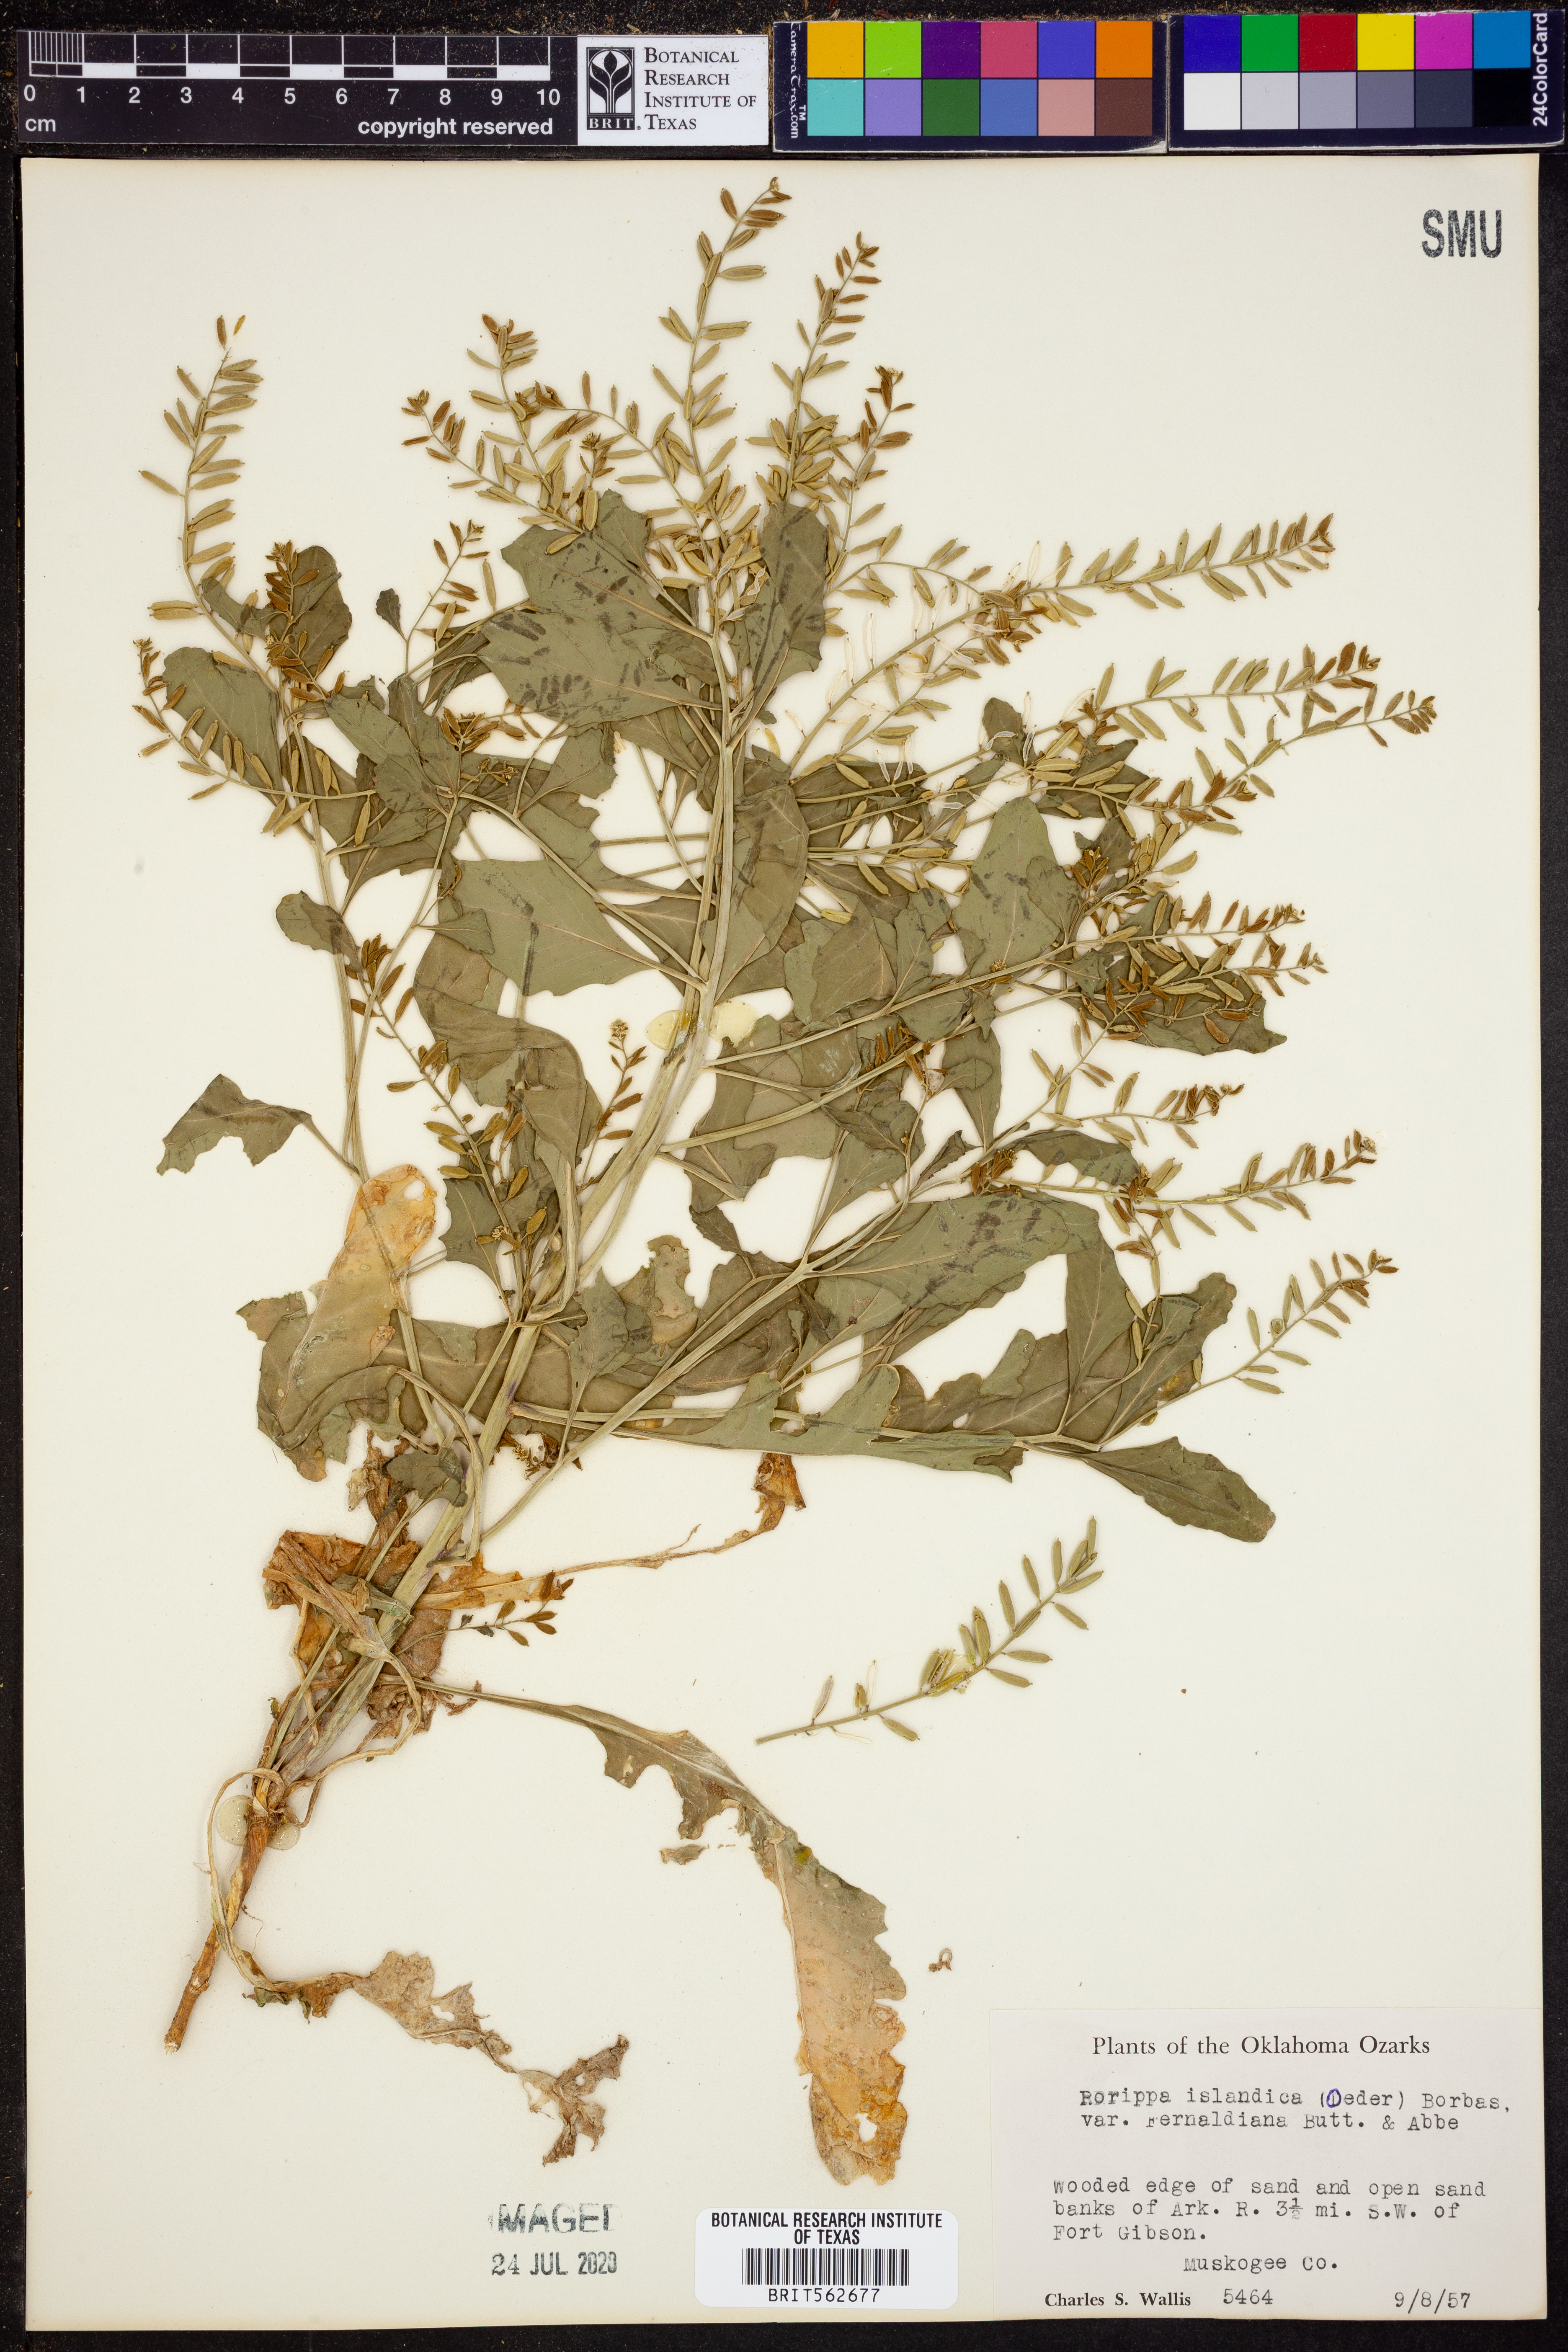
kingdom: Plantae
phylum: Tracheophyta
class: Magnoliopsida
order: Brassicales
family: Brassicaceae
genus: Rorippa
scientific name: Rorippa palustris
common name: Marsh yellow-cress
